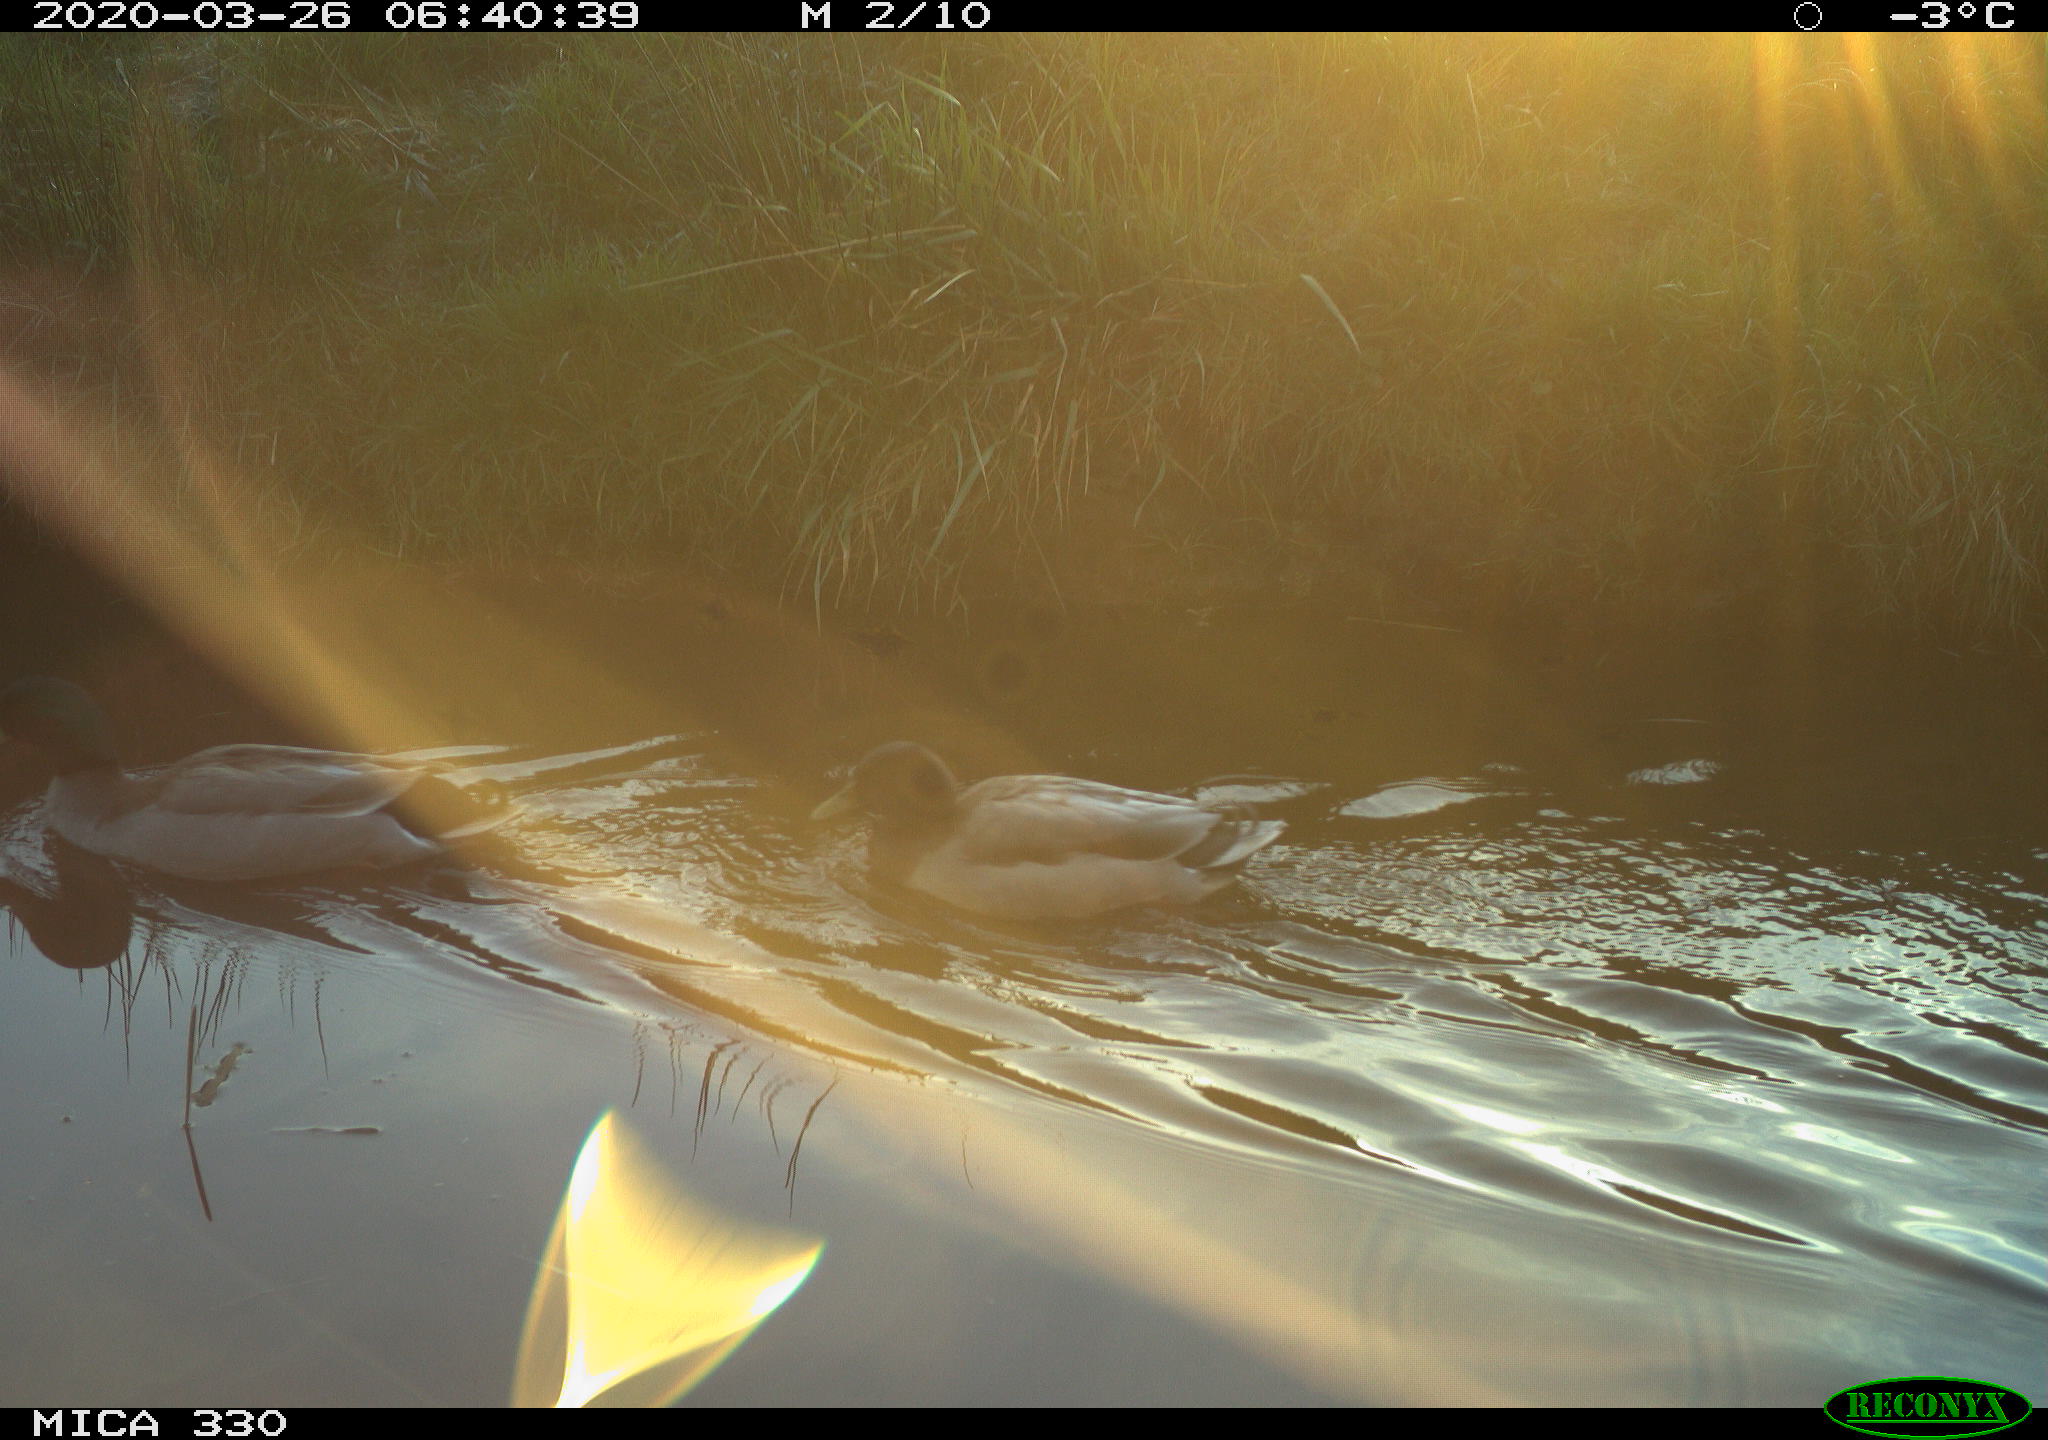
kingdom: Animalia
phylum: Chordata
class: Aves
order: Anseriformes
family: Anatidae
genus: Anas
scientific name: Anas platyrhynchos
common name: Mallard
